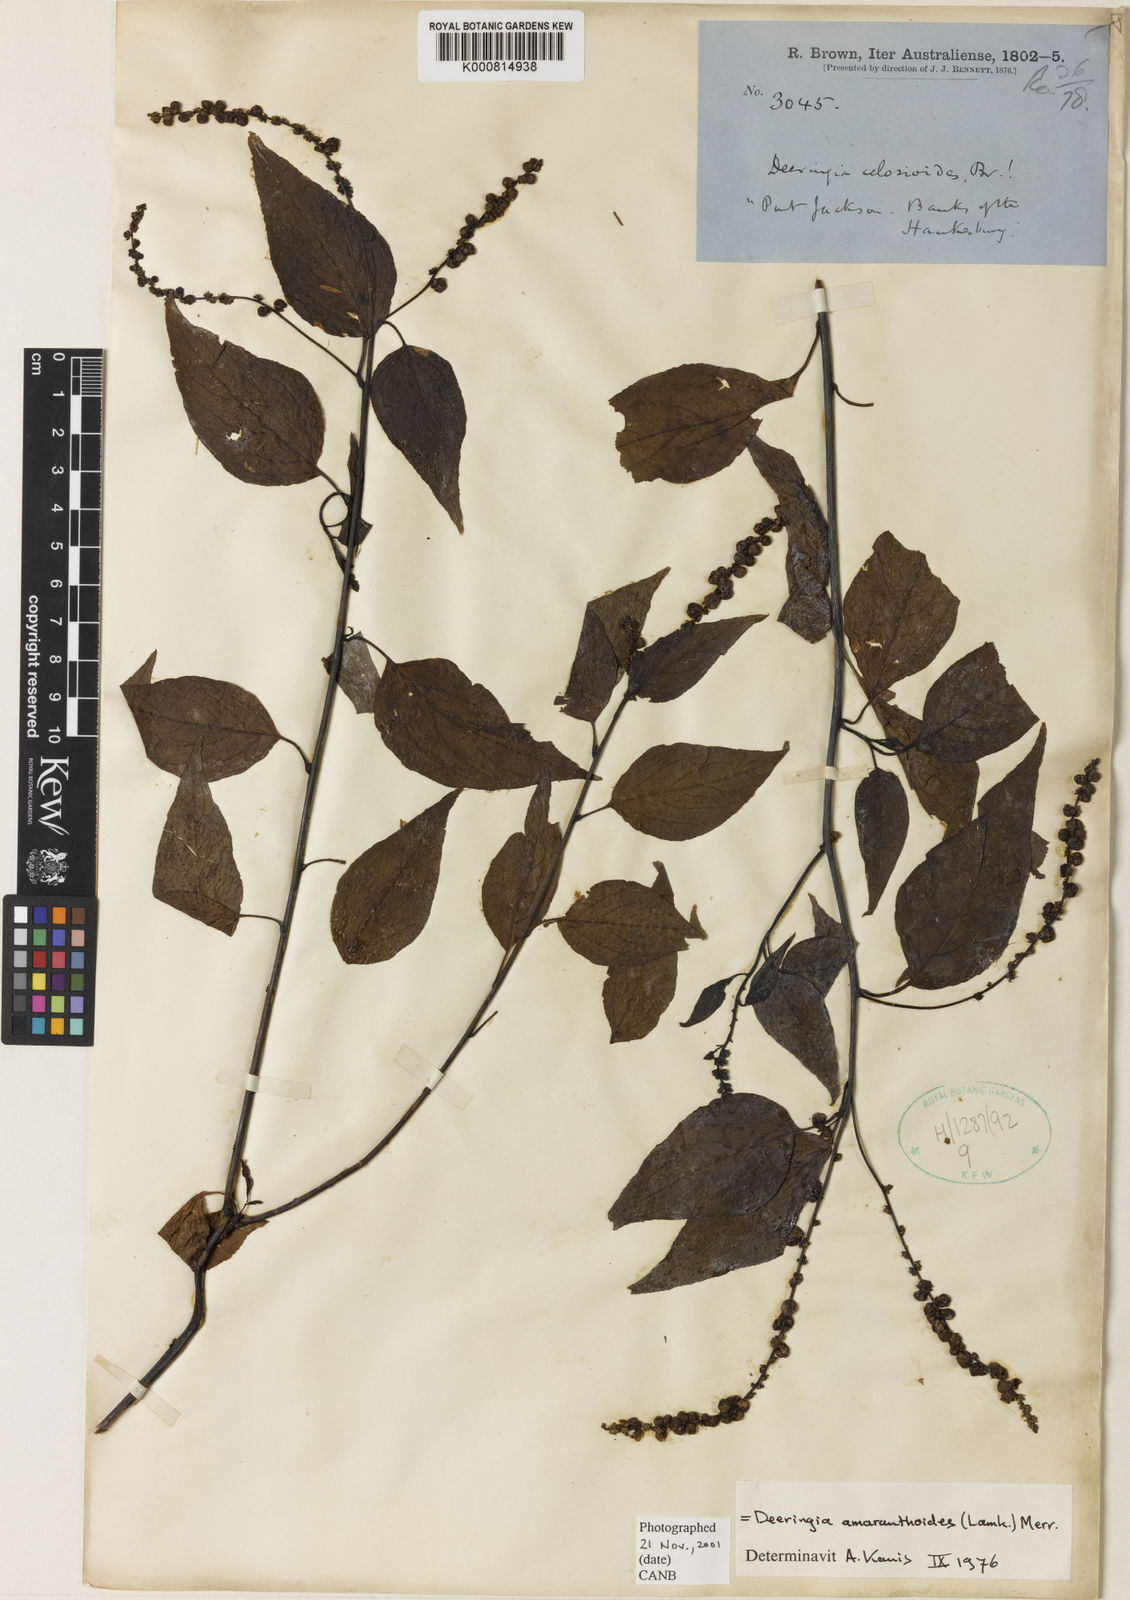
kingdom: Plantae
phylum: Tracheophyta
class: Magnoliopsida
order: Caryophyllales
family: Amaranthaceae
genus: Deeringia
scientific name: Deeringia amaranthoides
